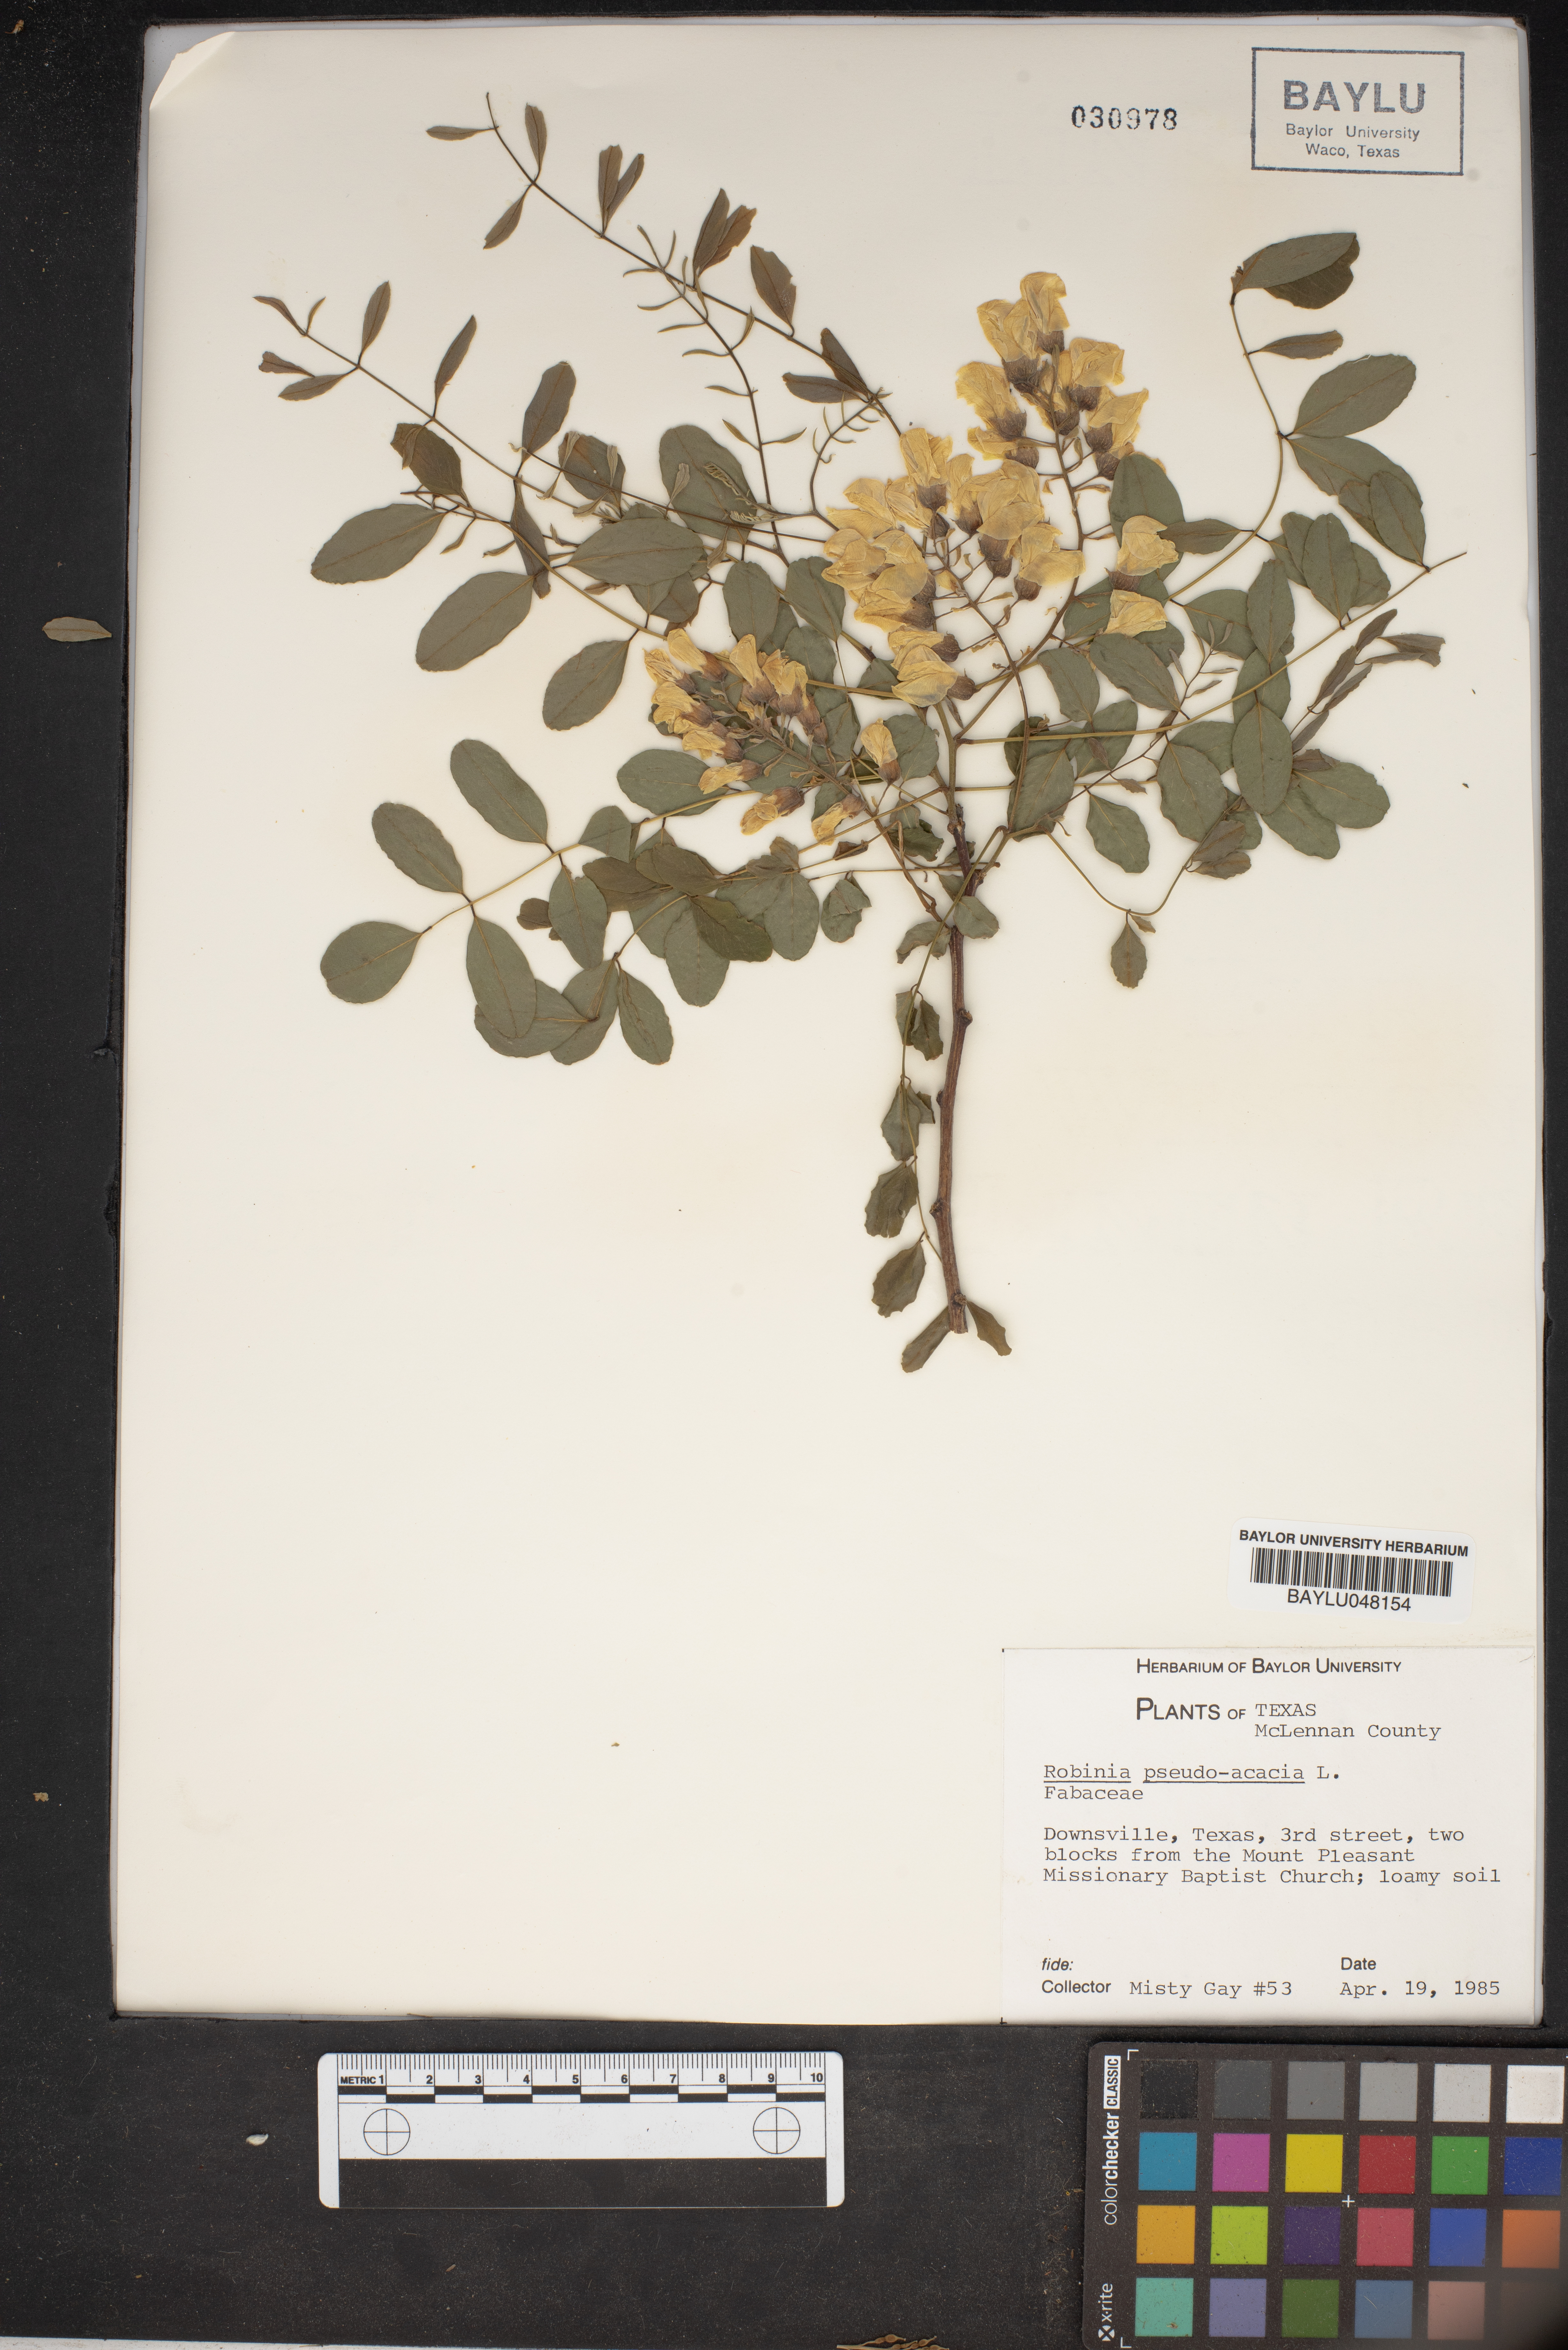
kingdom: Plantae
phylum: Tracheophyta
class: Magnoliopsida
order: Fabales
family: Fabaceae
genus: Robinia
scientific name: Robinia pseudoacacia
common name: Black locust
